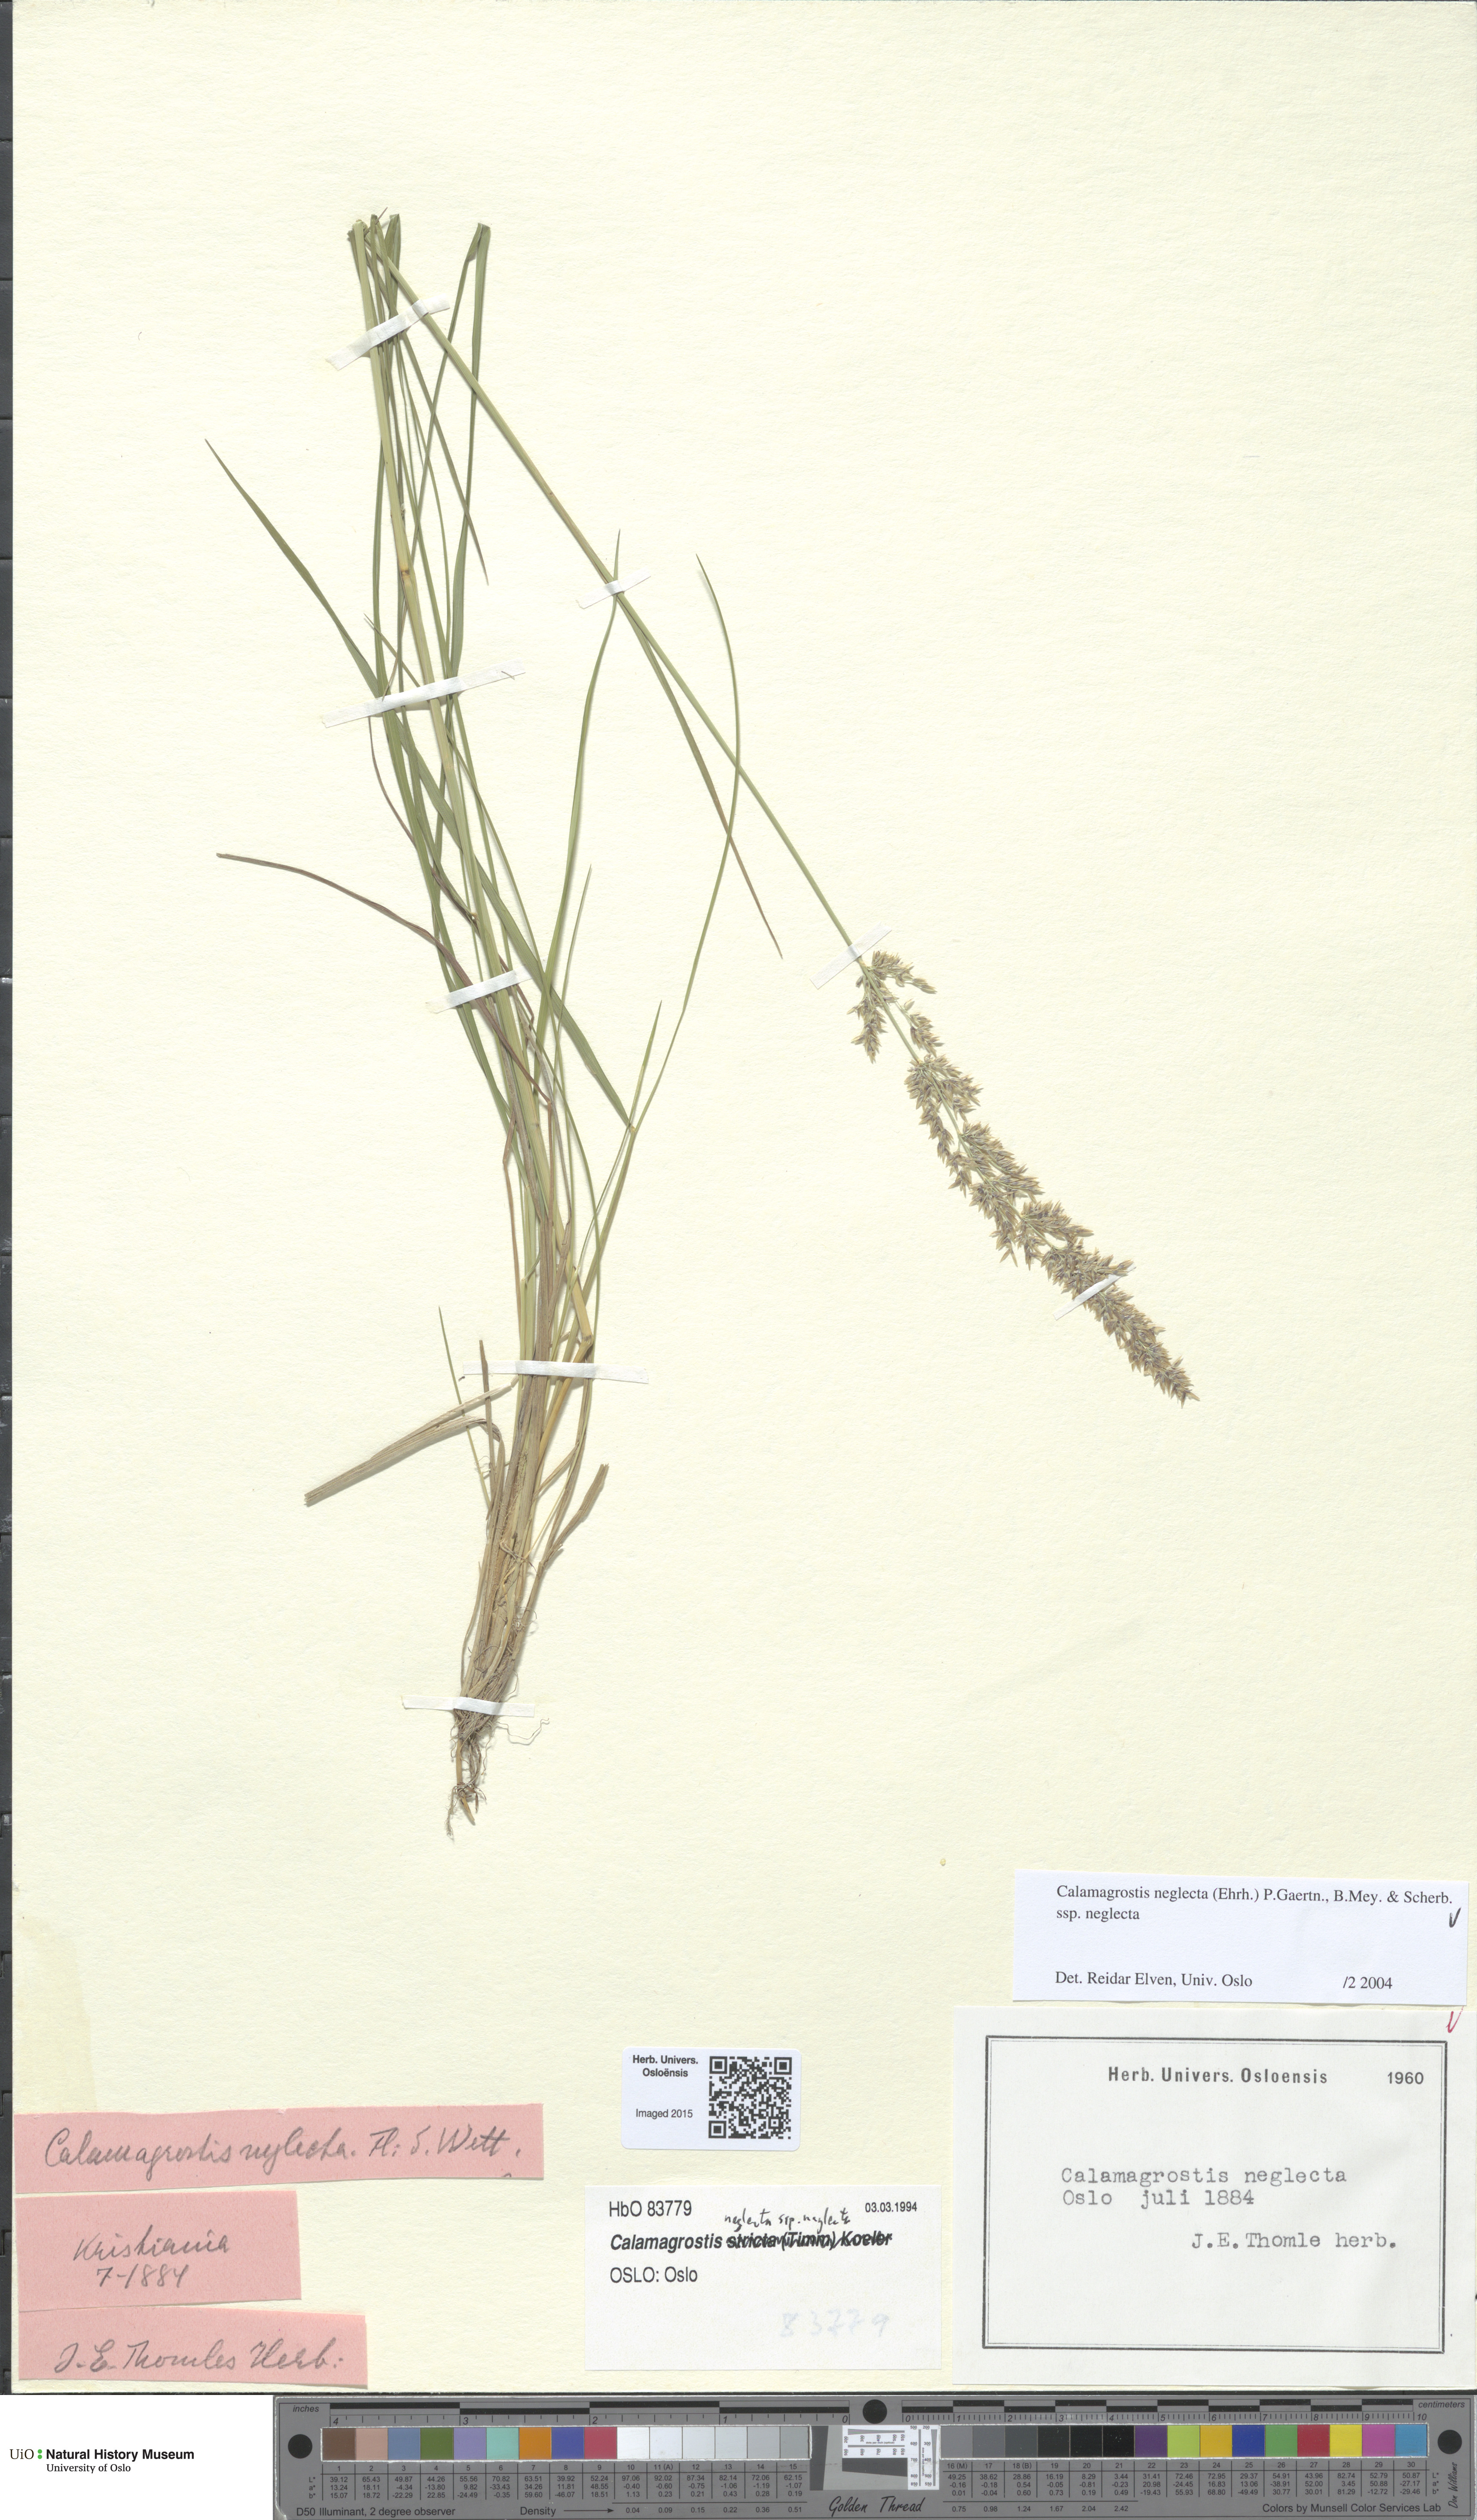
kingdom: Plantae
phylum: Tracheophyta
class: Liliopsida
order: Poales
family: Poaceae
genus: Achnatherum
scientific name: Achnatherum calamagrostis
